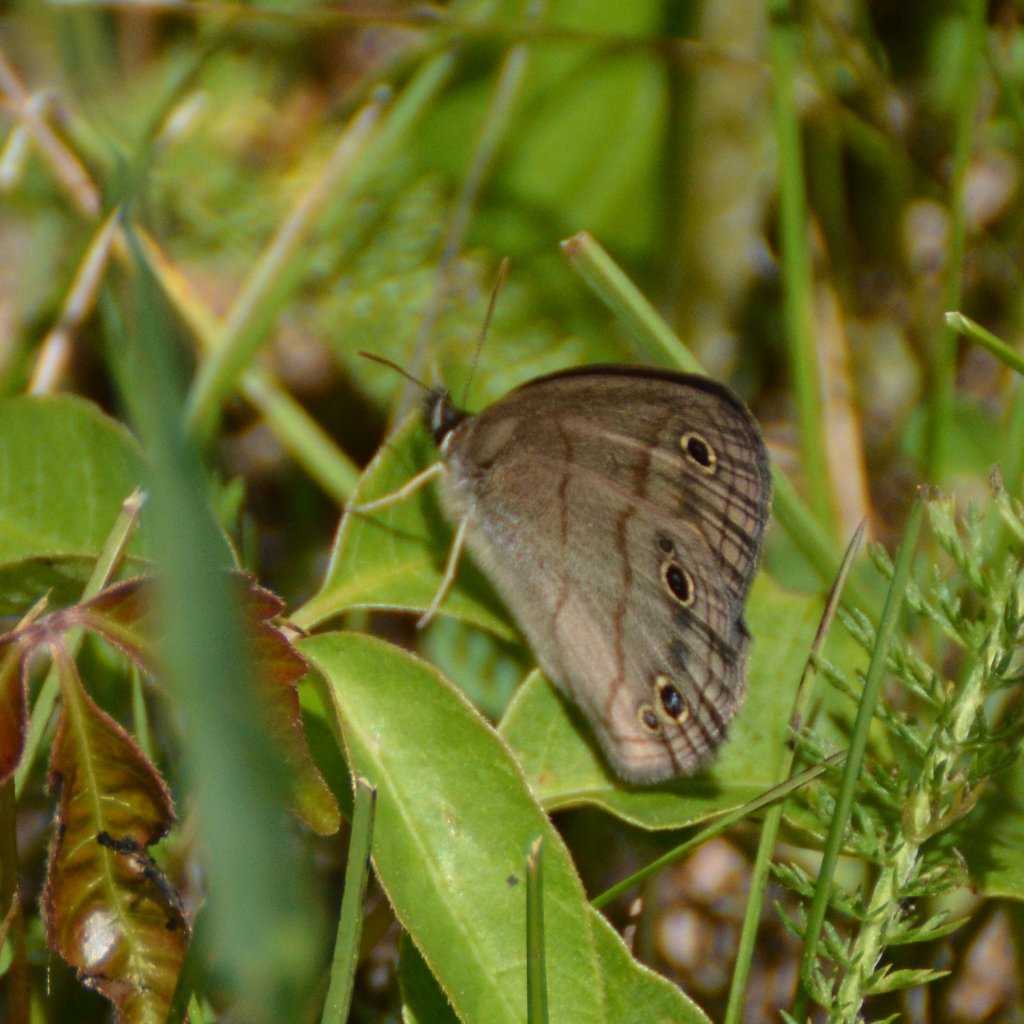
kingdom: Animalia
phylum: Arthropoda
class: Insecta
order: Lepidoptera
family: Nymphalidae
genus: Euptychia
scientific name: Euptychia cymela
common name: Little Wood Satyr
